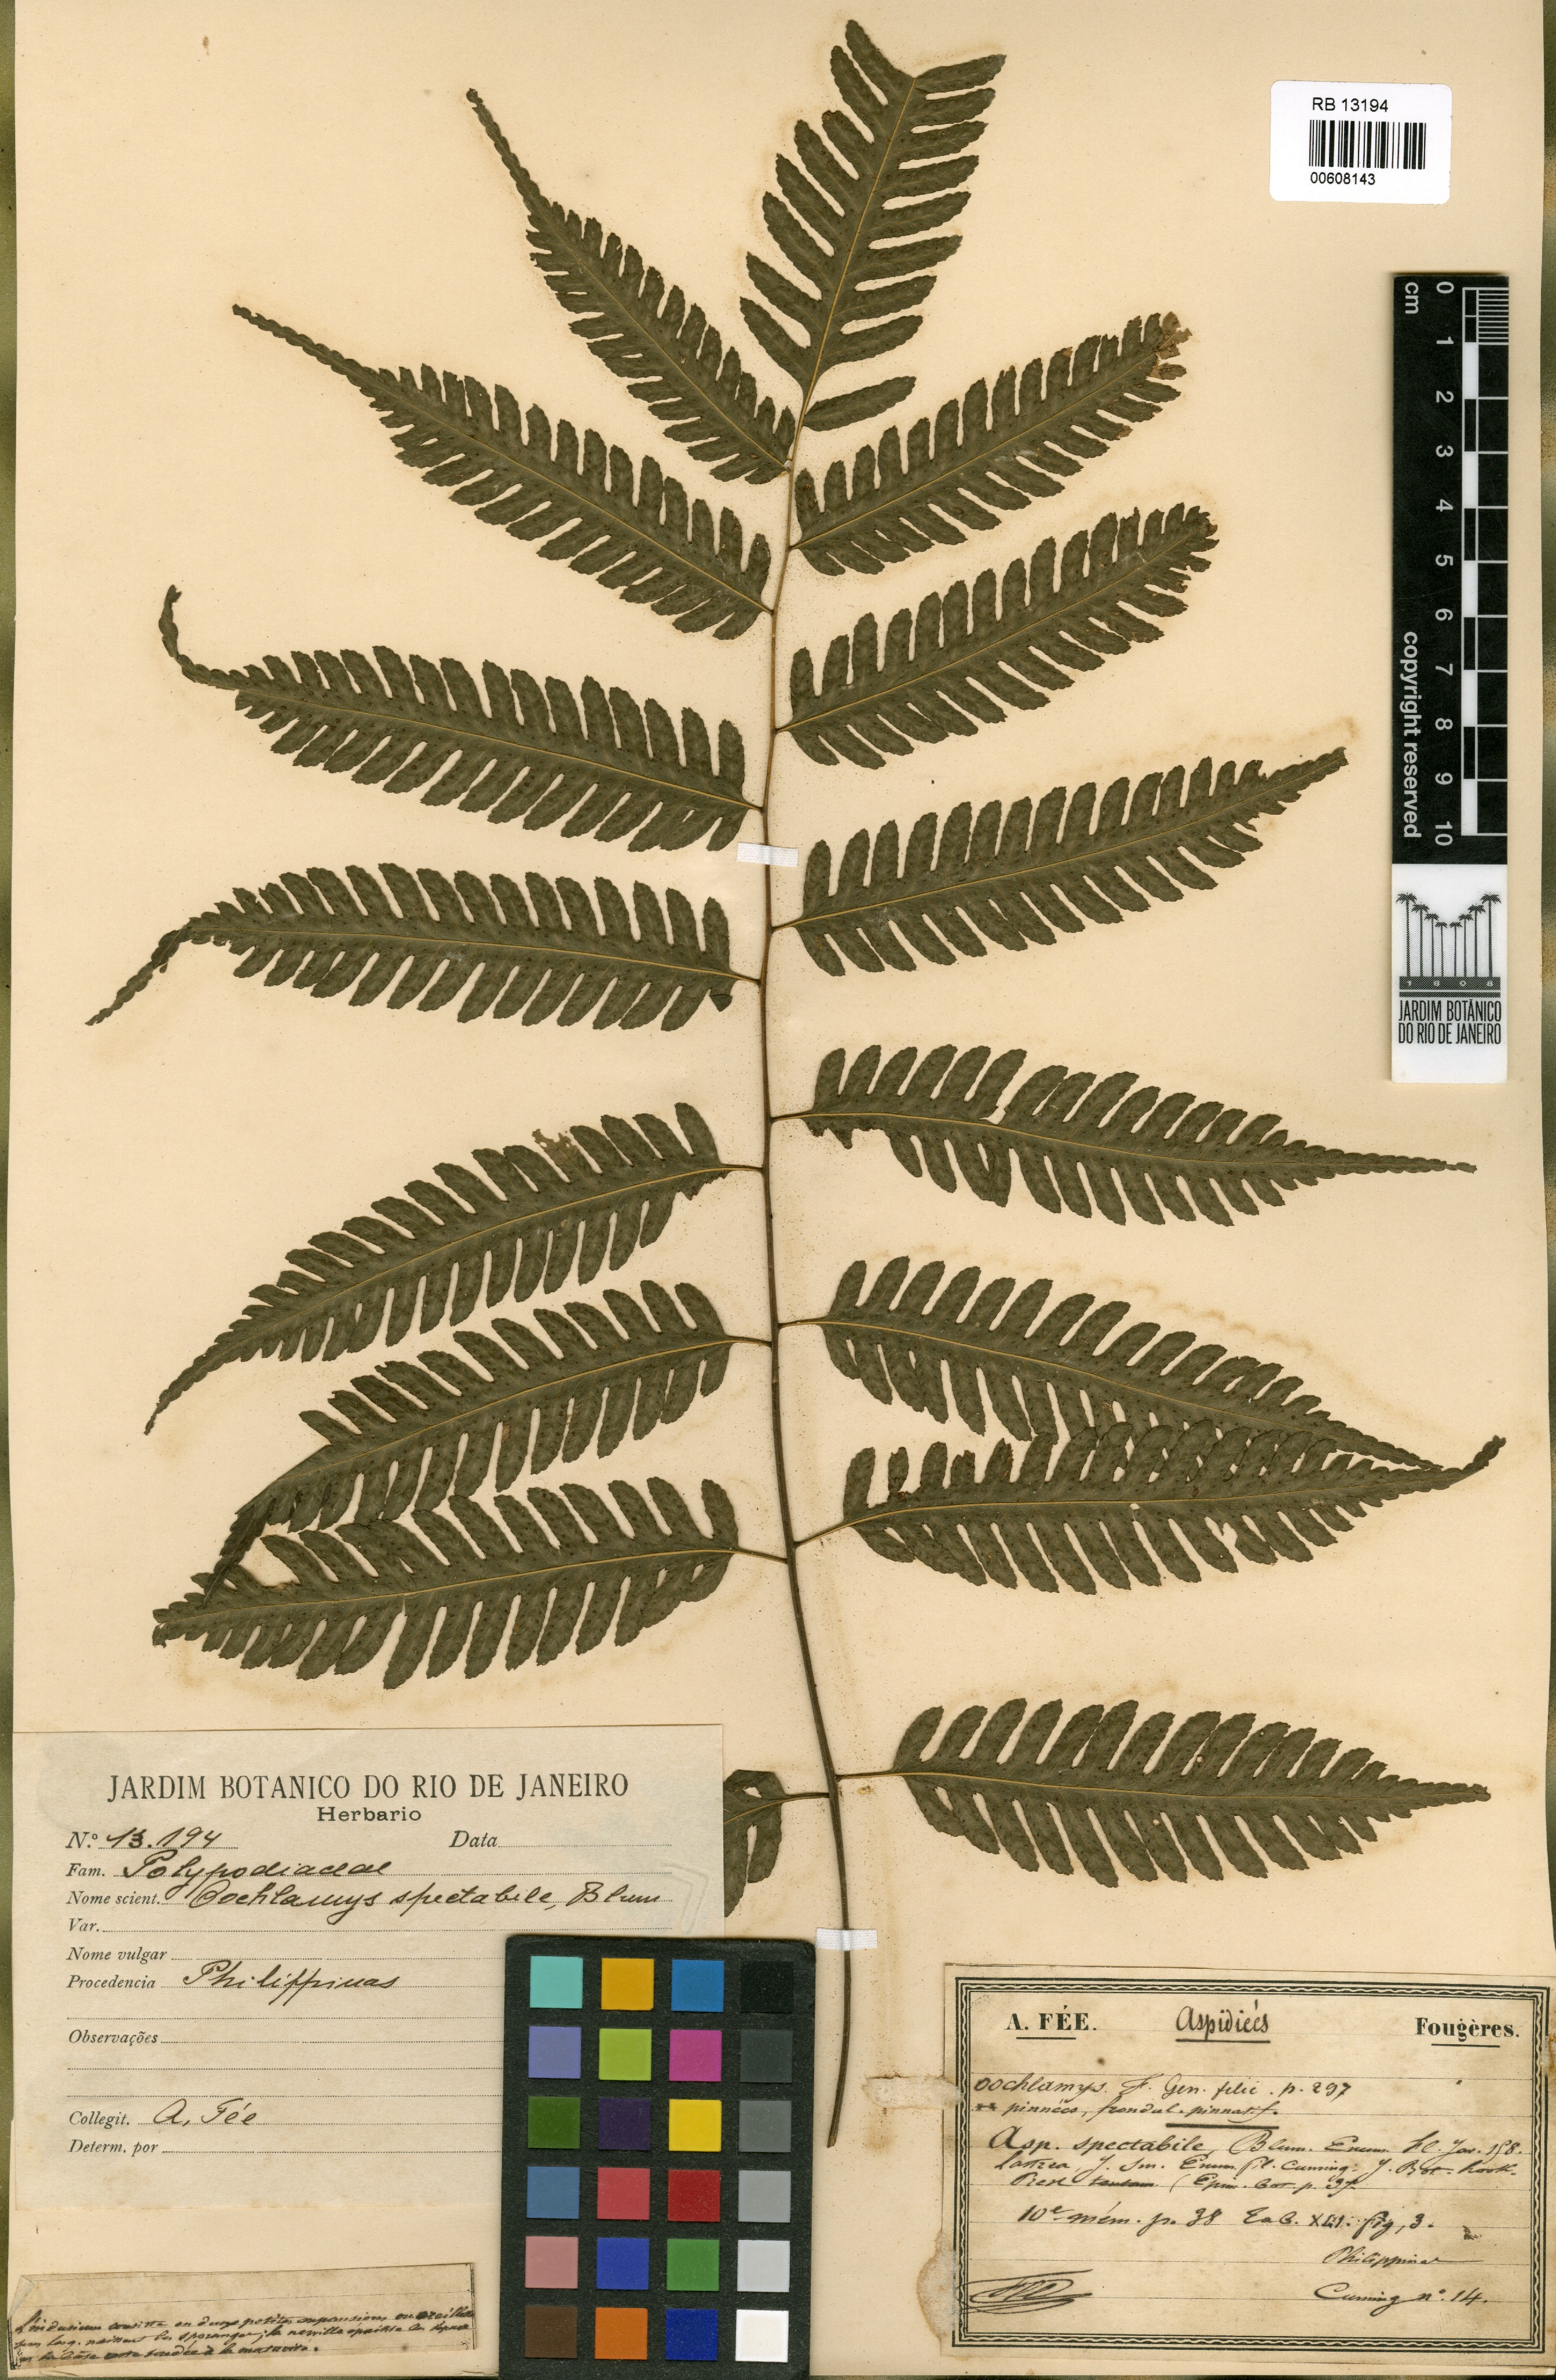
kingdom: Plantae
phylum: Tracheophyta
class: Polypodiopsida
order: Polypodiales
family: Tectariaceae
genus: Pteridrys
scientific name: Pteridrys syrmatica
